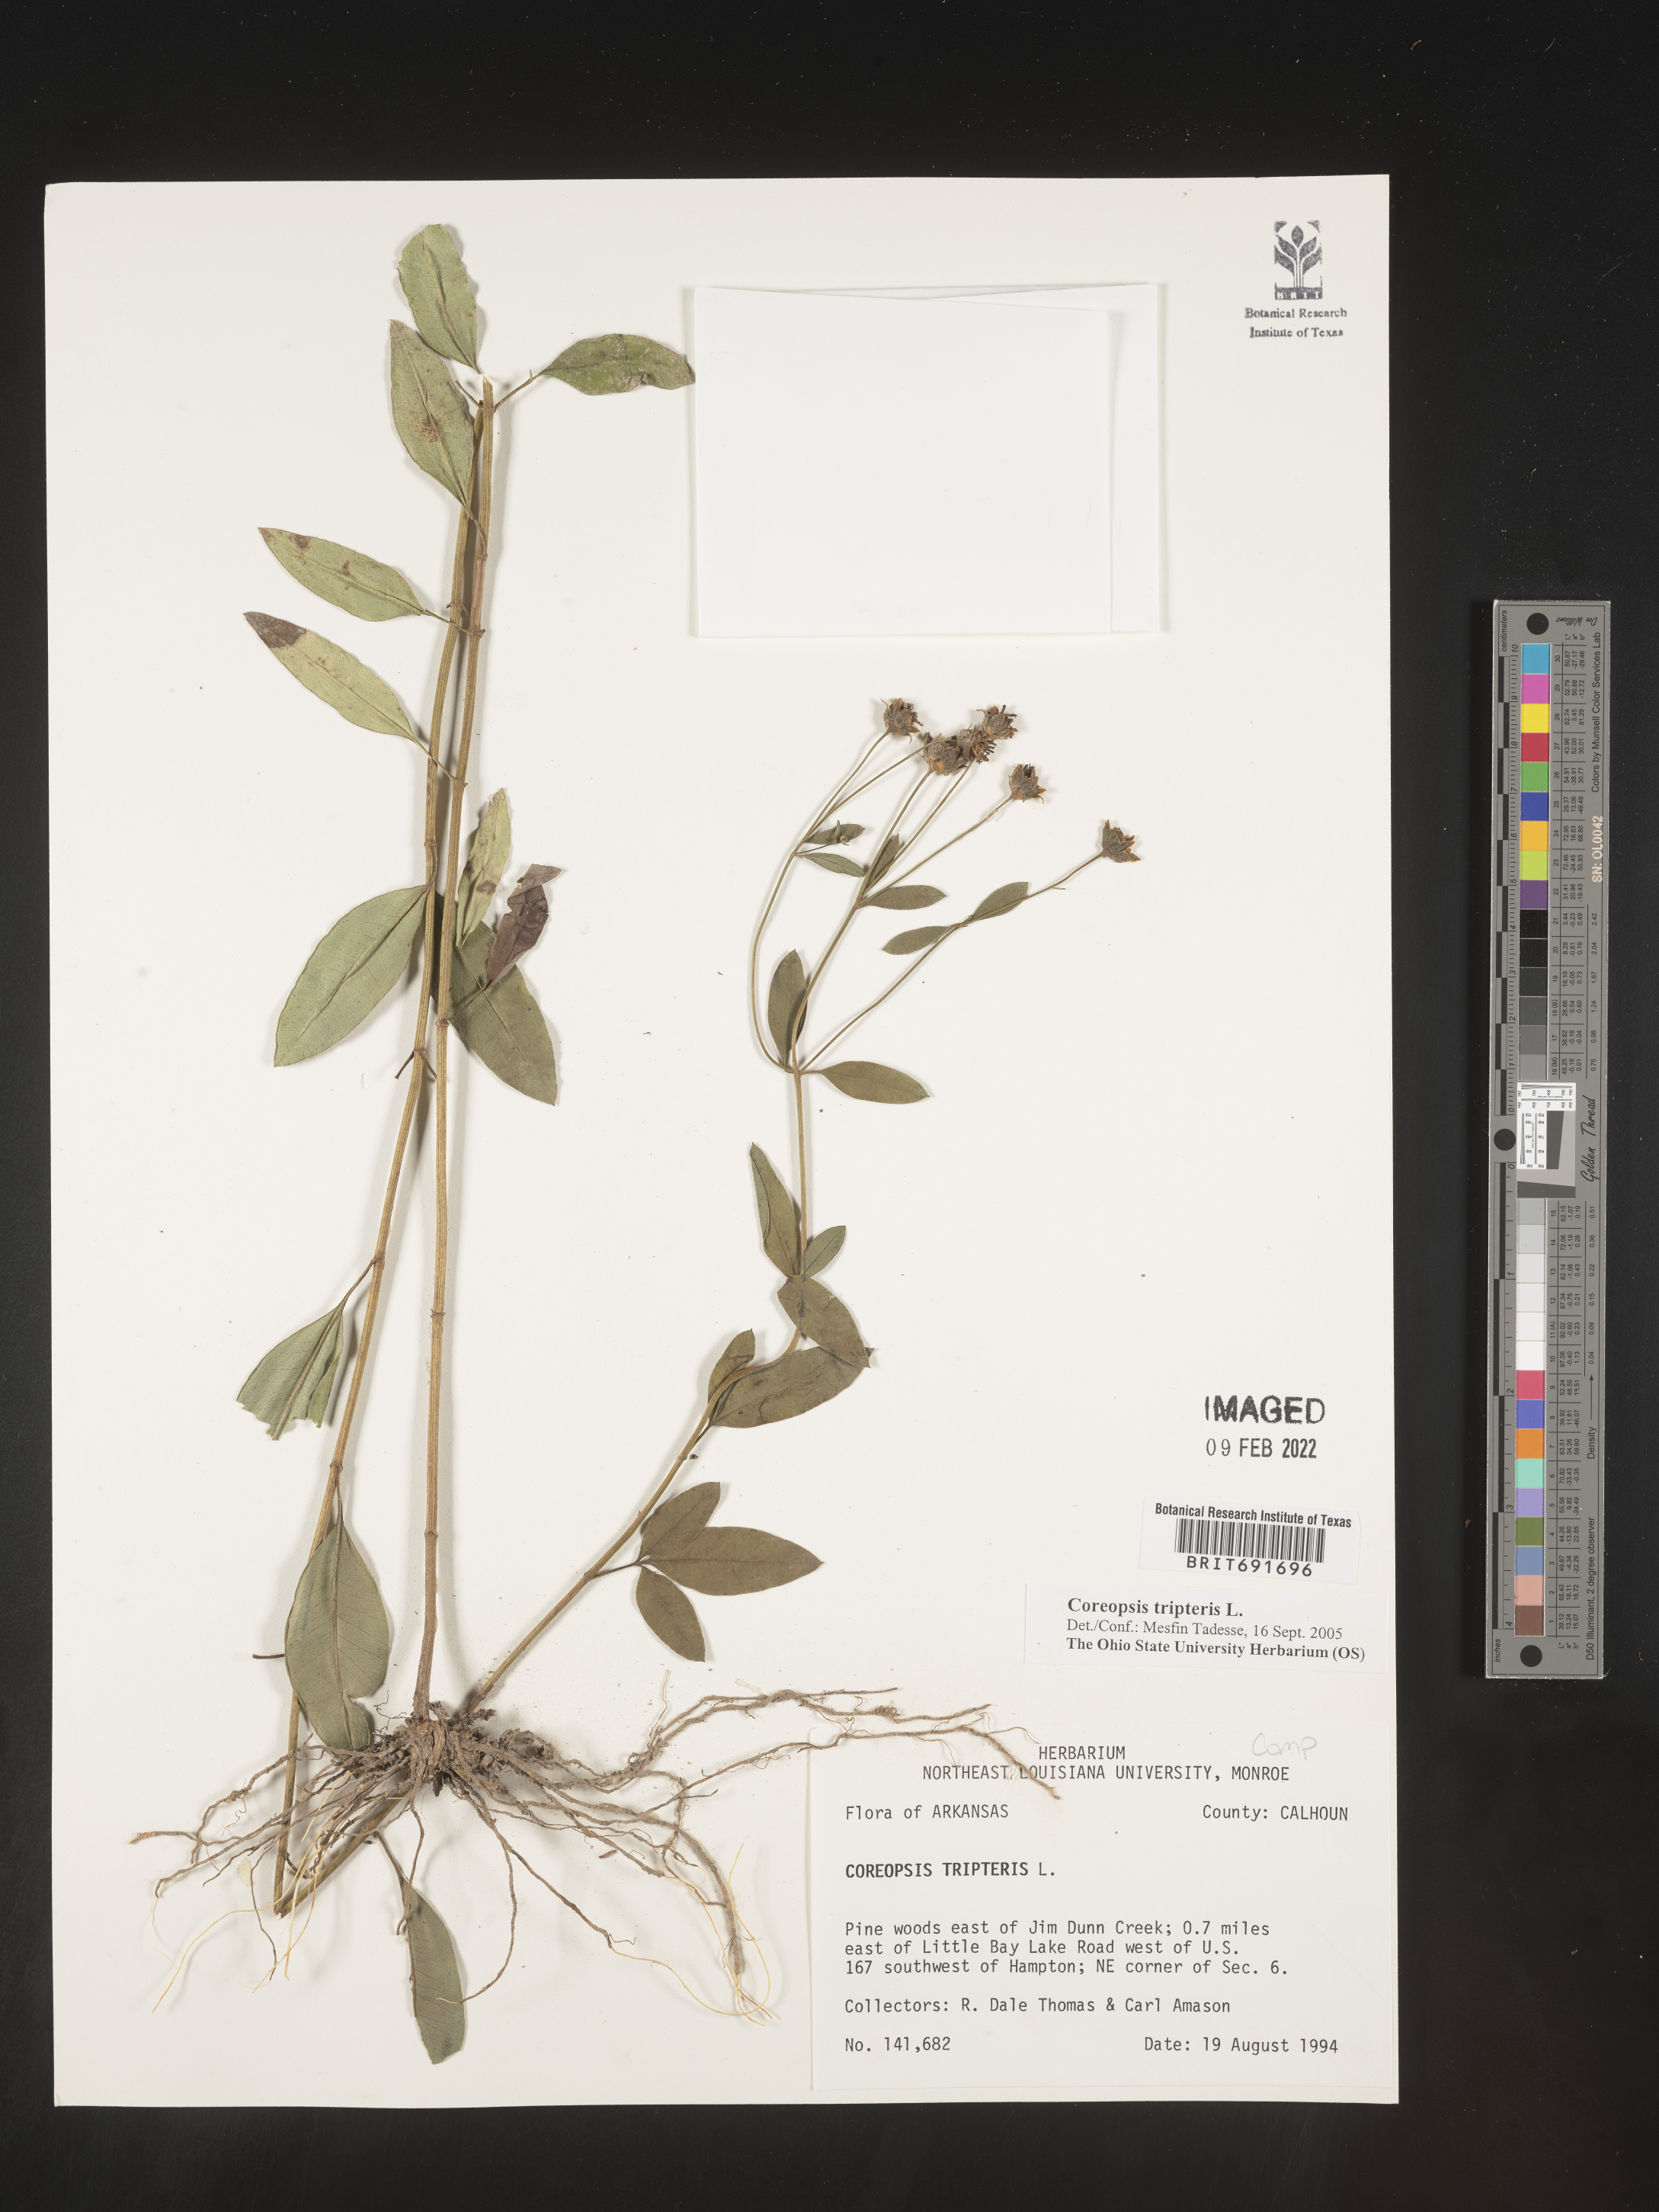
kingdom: Plantae
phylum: Tracheophyta
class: Magnoliopsida
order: Asterales
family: Asteraceae
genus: Coreopsis
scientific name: Coreopsis tripteris
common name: Tall coreopsis
